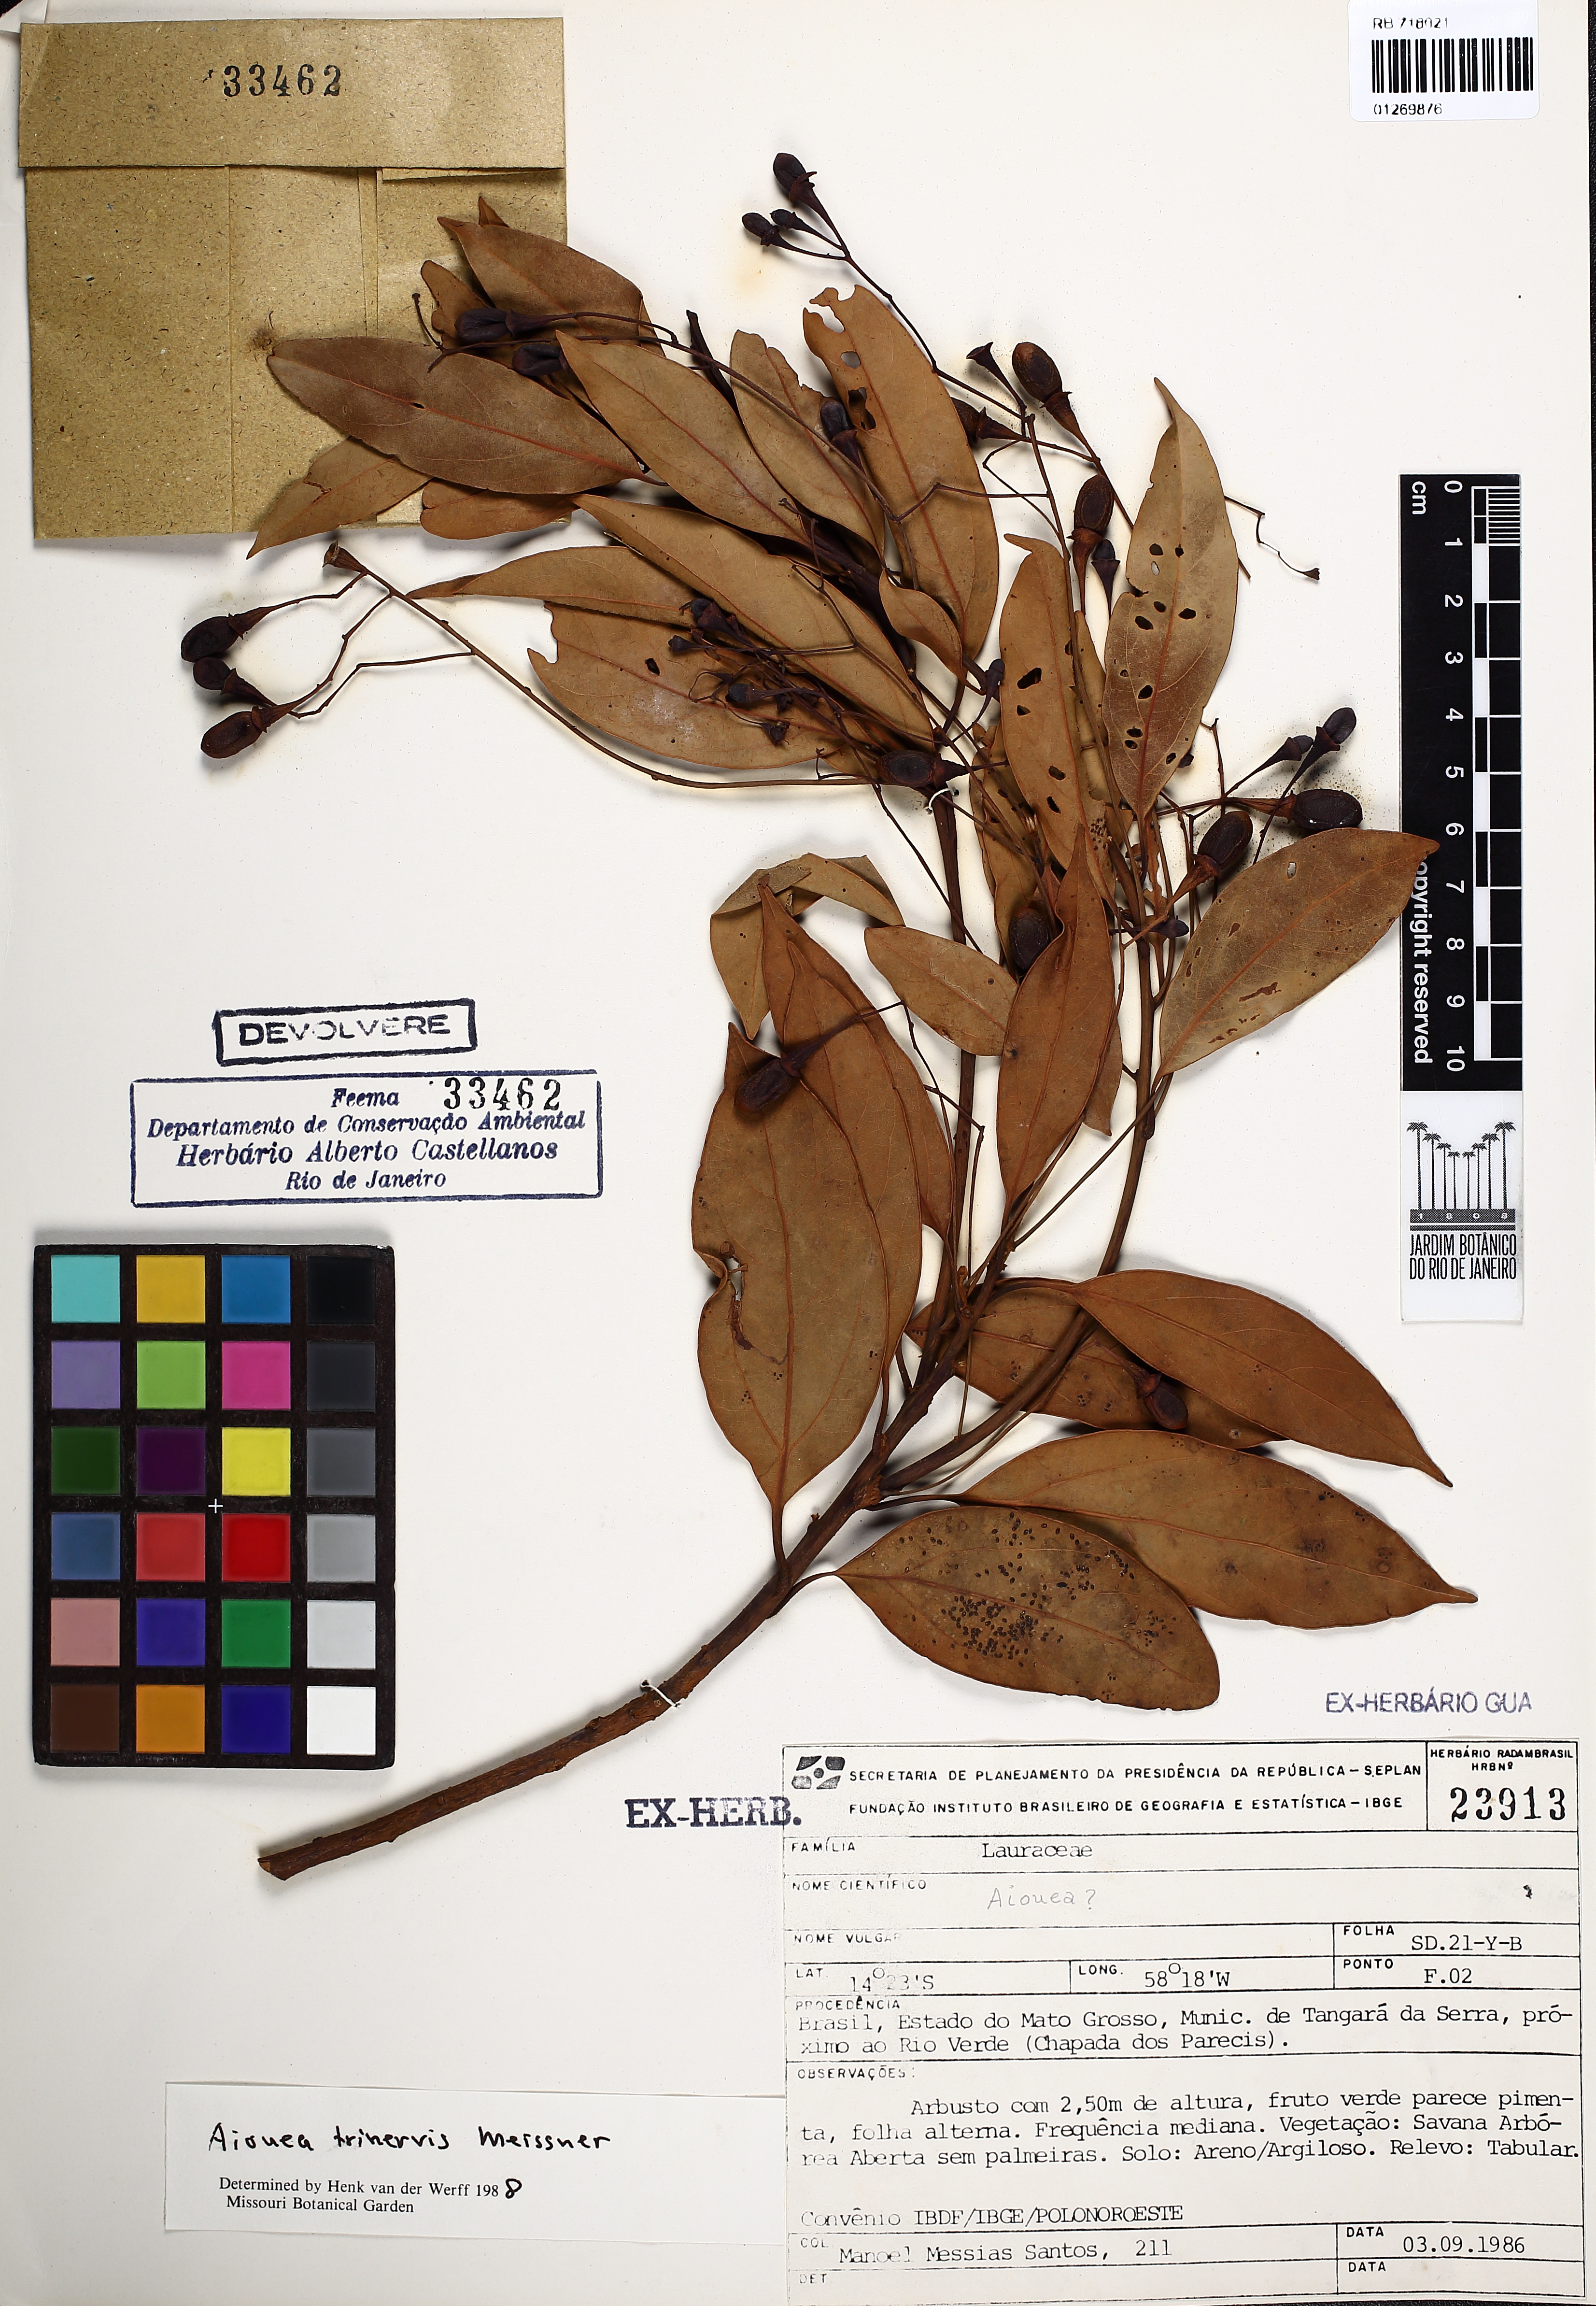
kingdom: Plantae
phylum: Tracheophyta
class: Magnoliopsida
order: Laurales
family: Lauraceae
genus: Aiouea
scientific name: Aiouea trinervis
